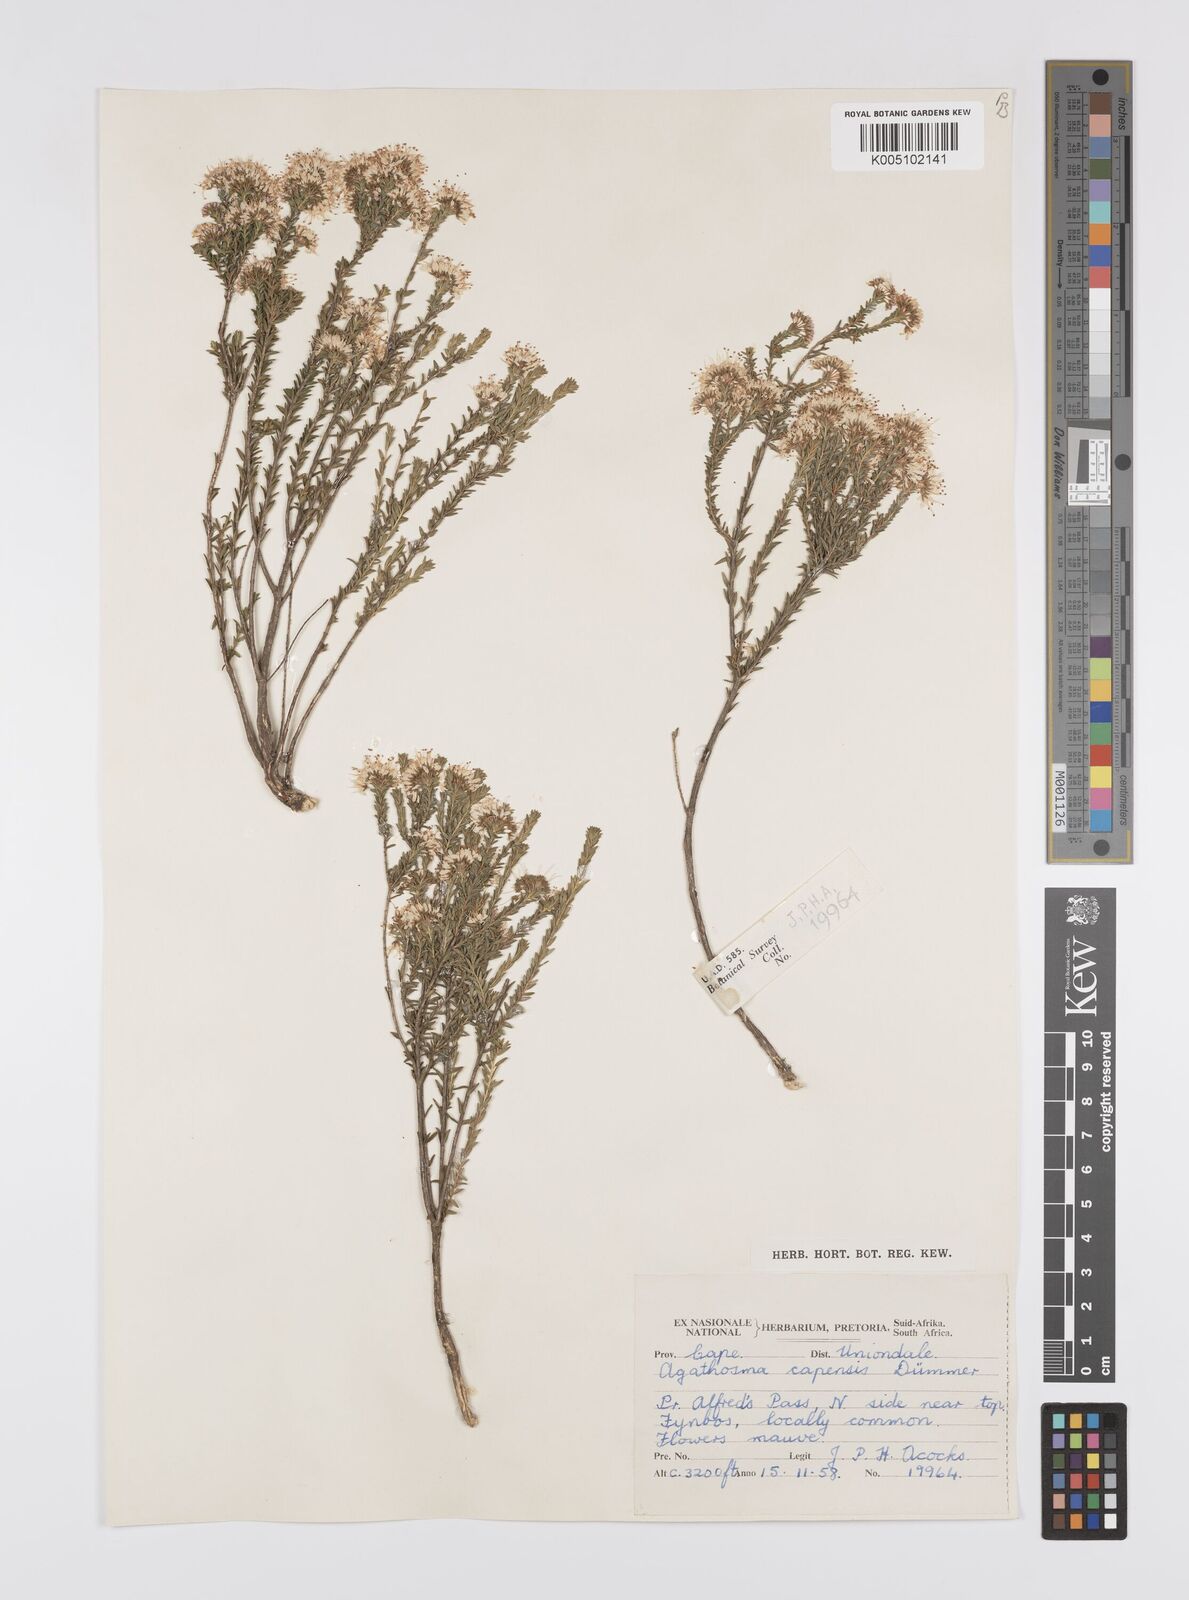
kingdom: Plantae
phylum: Tracheophyta
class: Magnoliopsida
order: Sapindales
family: Rutaceae
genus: Agathosma
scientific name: Agathosma capensis
